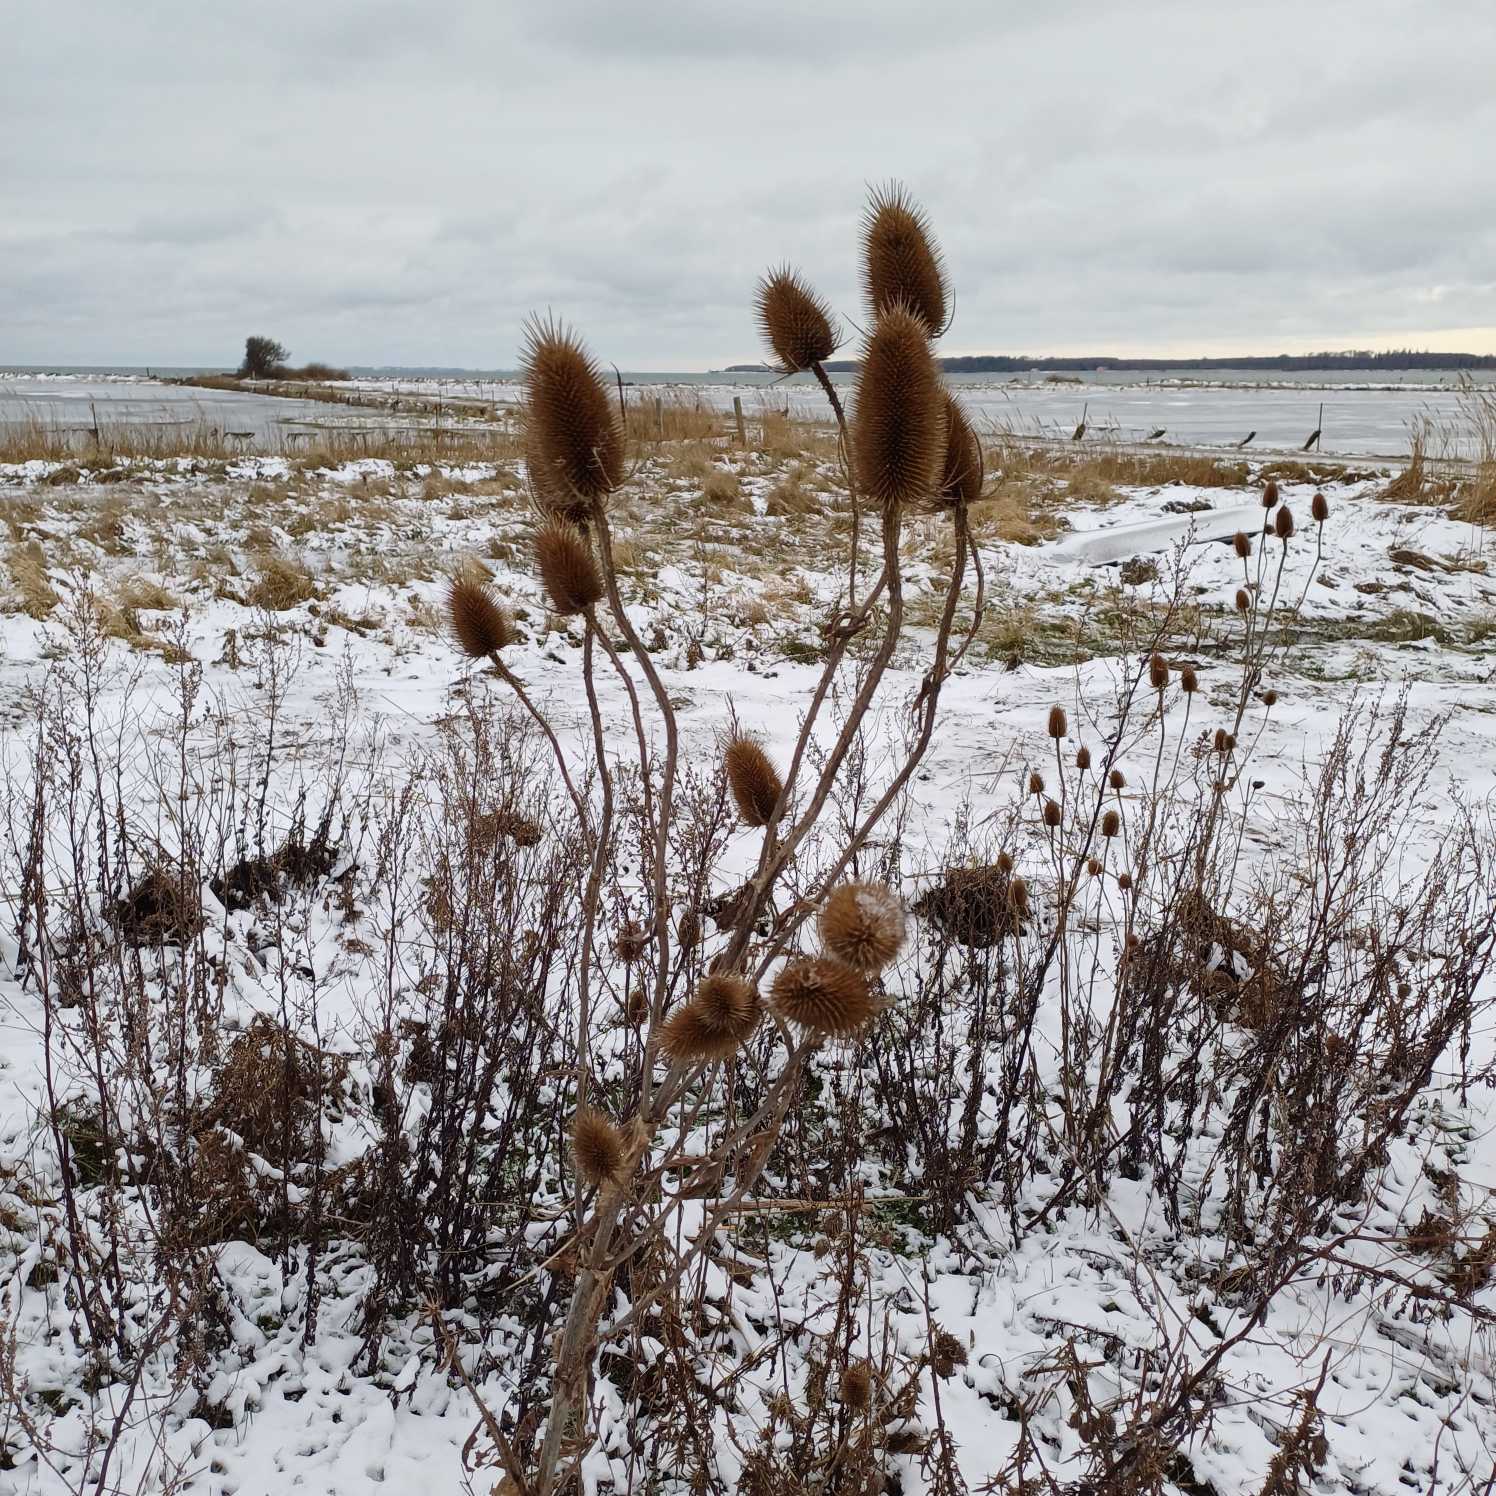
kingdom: Plantae
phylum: Tracheophyta
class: Magnoliopsida
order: Dipsacales
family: Caprifoliaceae
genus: Dipsacus
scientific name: Dipsacus fullonum
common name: Gærde-kartebolle
